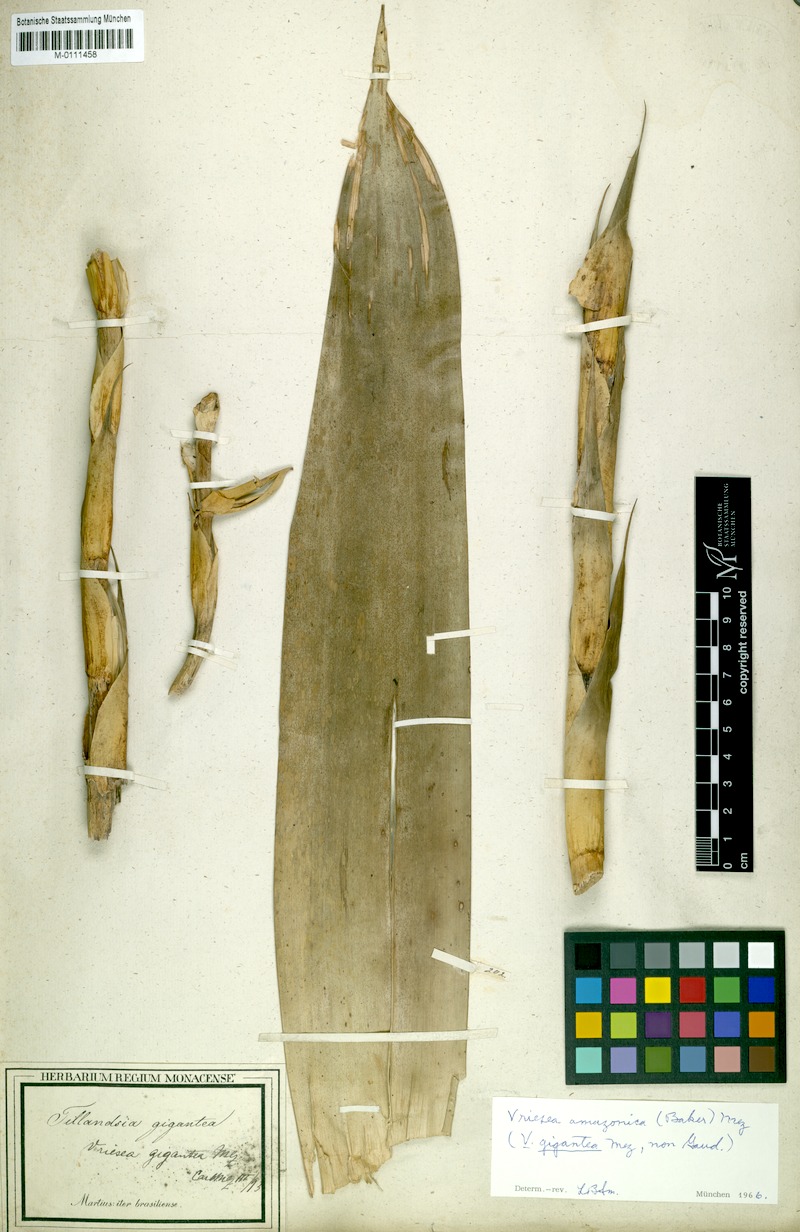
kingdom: Plantae
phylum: Tracheophyta
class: Liliopsida
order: Poales
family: Bromeliaceae
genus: Werauhia
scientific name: Werauhia gigantea
